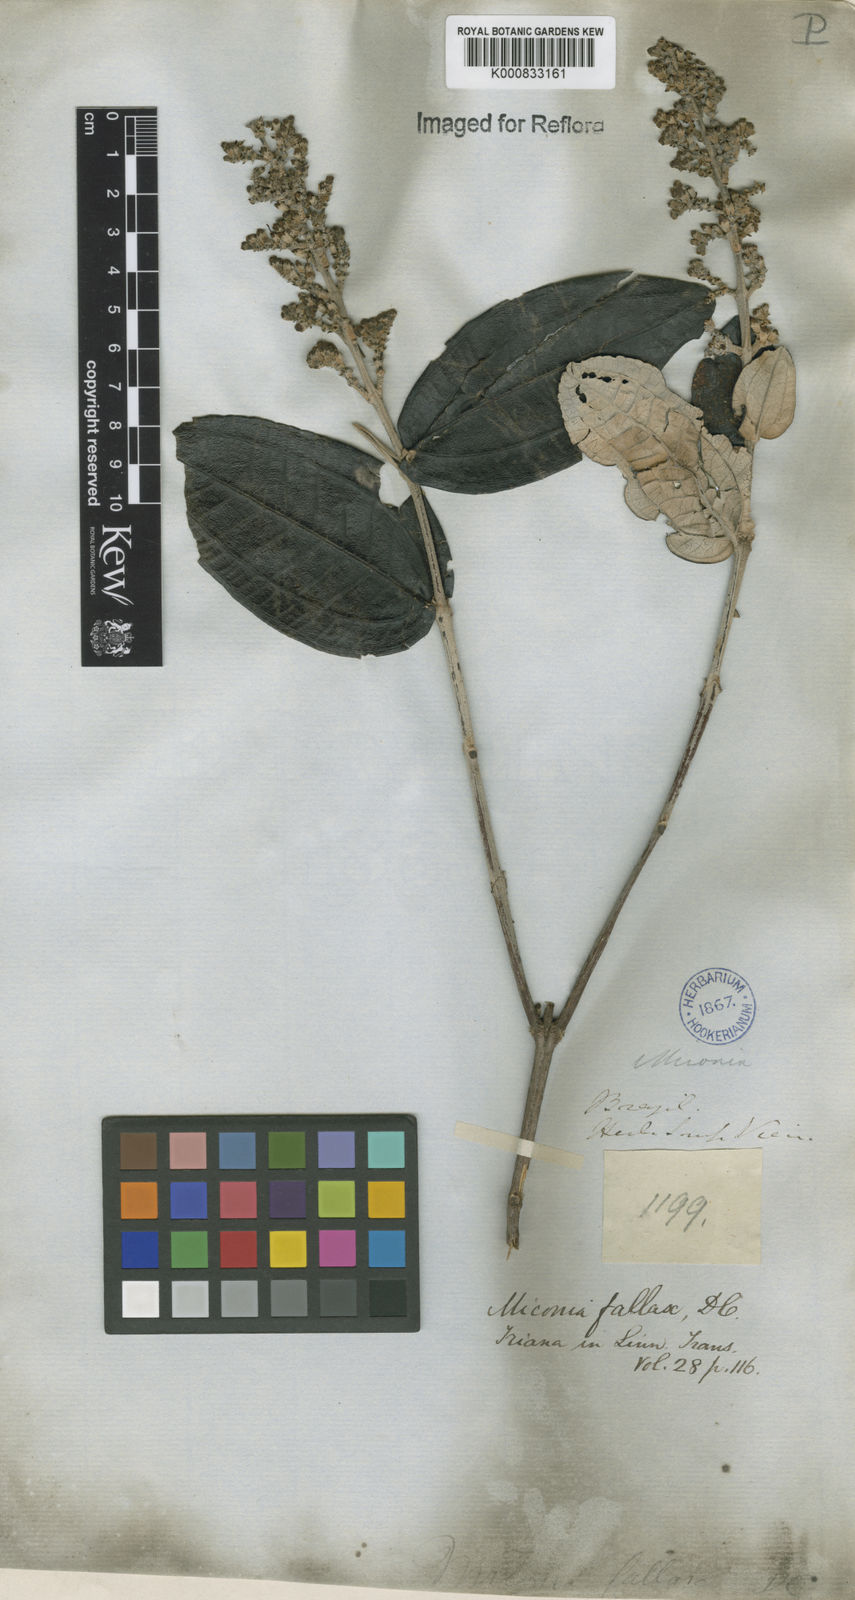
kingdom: Plantae
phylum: Tracheophyta
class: Magnoliopsida
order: Myrtales
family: Melastomataceae
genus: Miconia
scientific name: Miconia fallax
